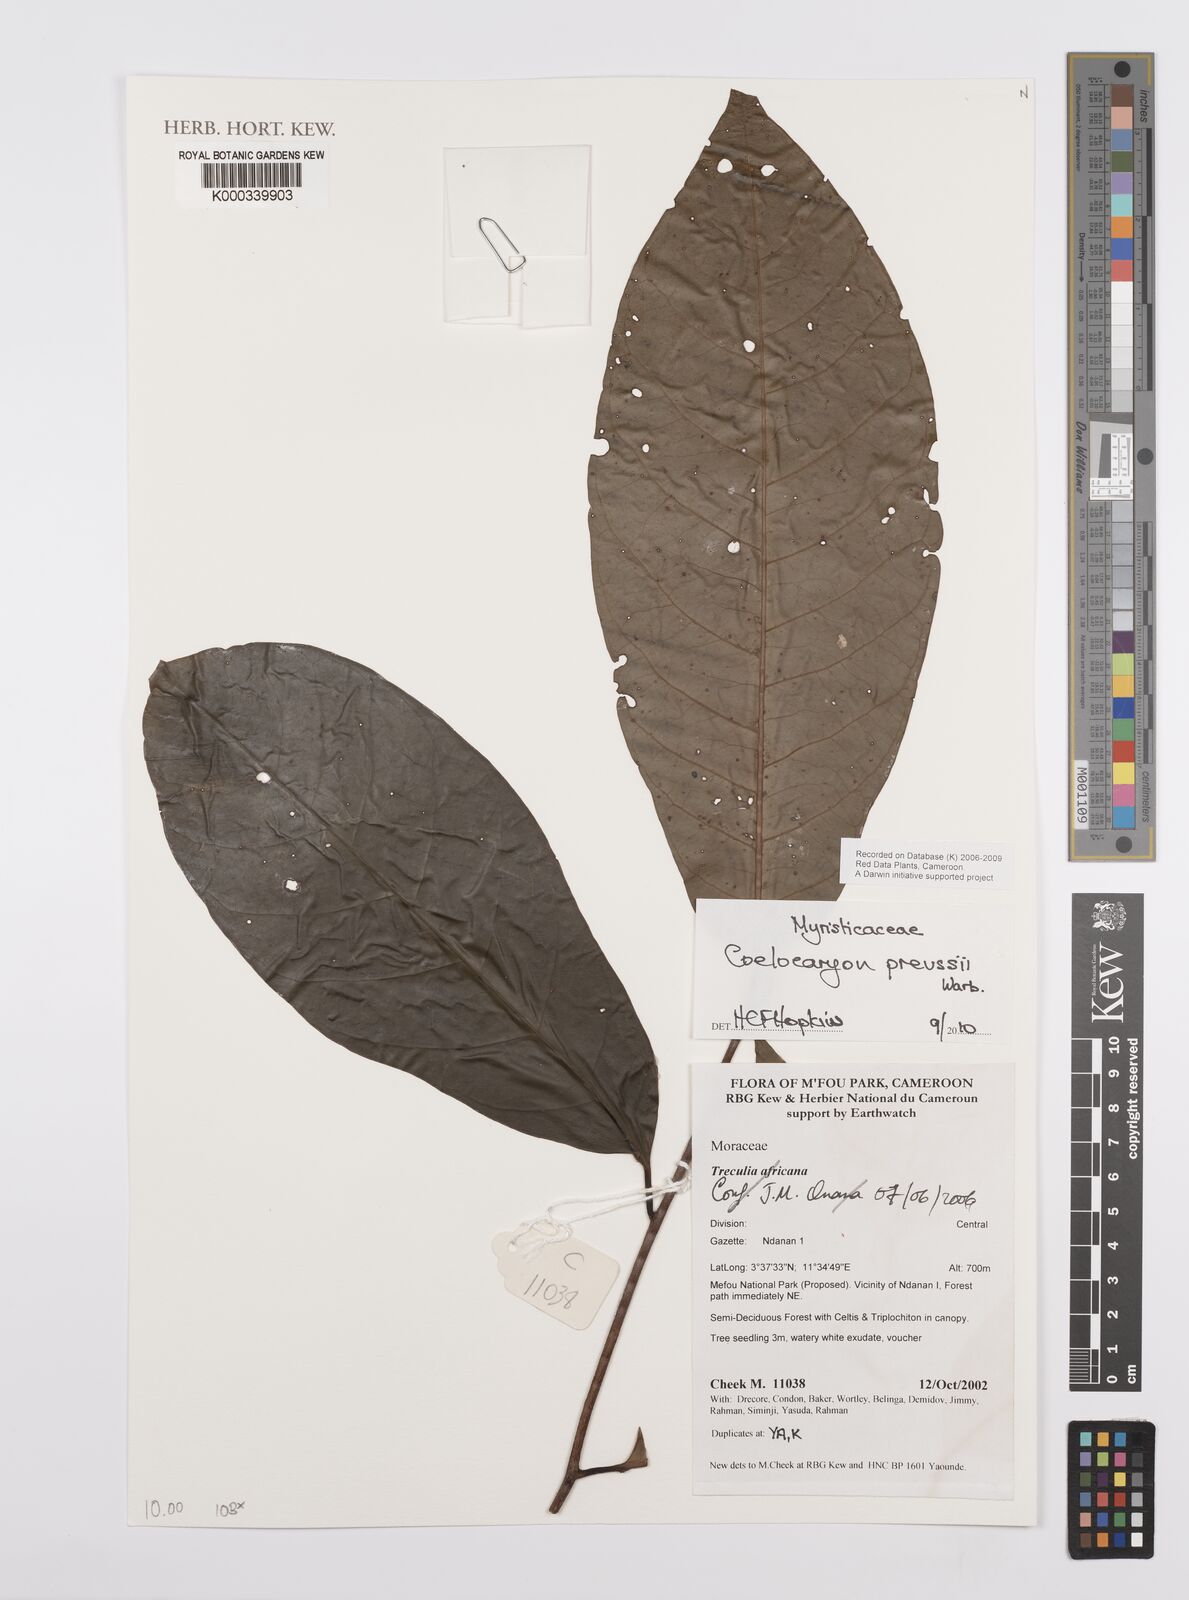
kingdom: Plantae
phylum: Tracheophyta
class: Magnoliopsida
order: Magnoliales
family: Myristicaceae
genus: Coelocaryon
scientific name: Coelocaryon preussii
